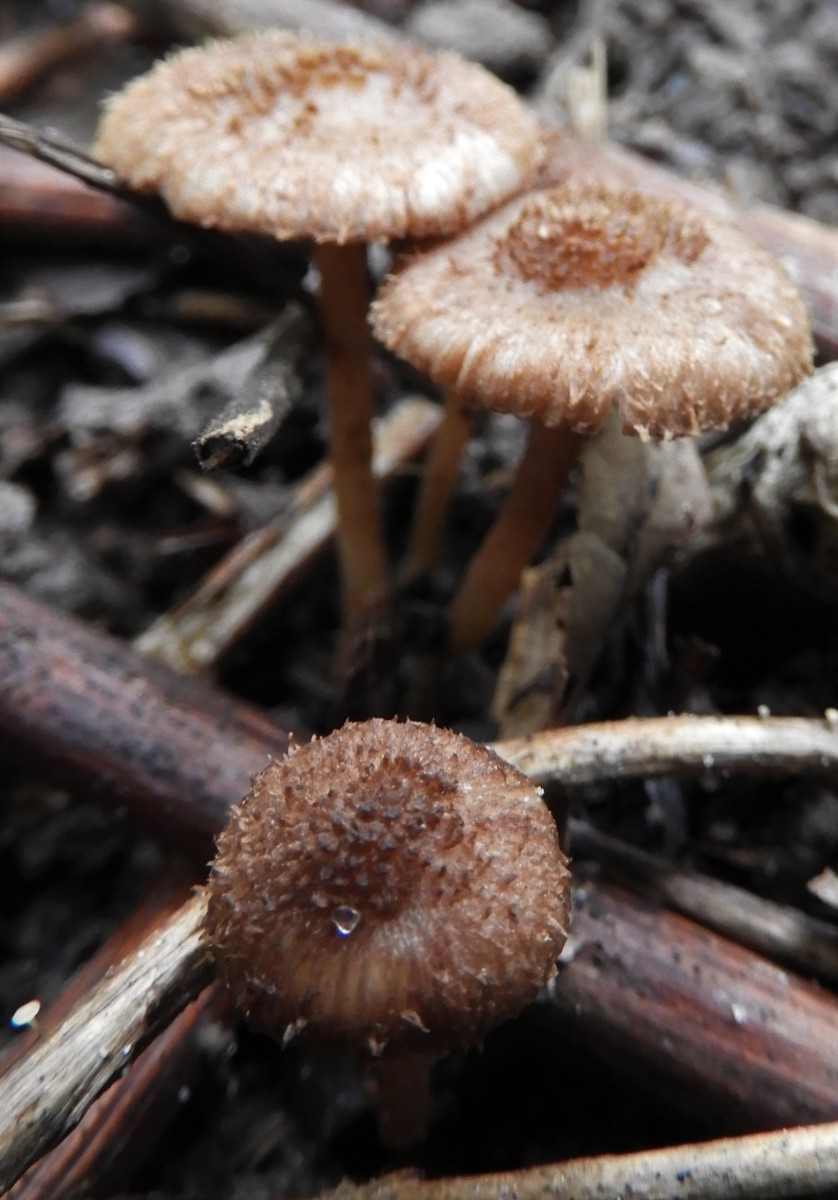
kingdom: Fungi
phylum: Basidiomycota
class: Agaricomycetes
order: Agaricales
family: Inocybaceae
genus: Inocybe
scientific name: Inocybe
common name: trævlhat
